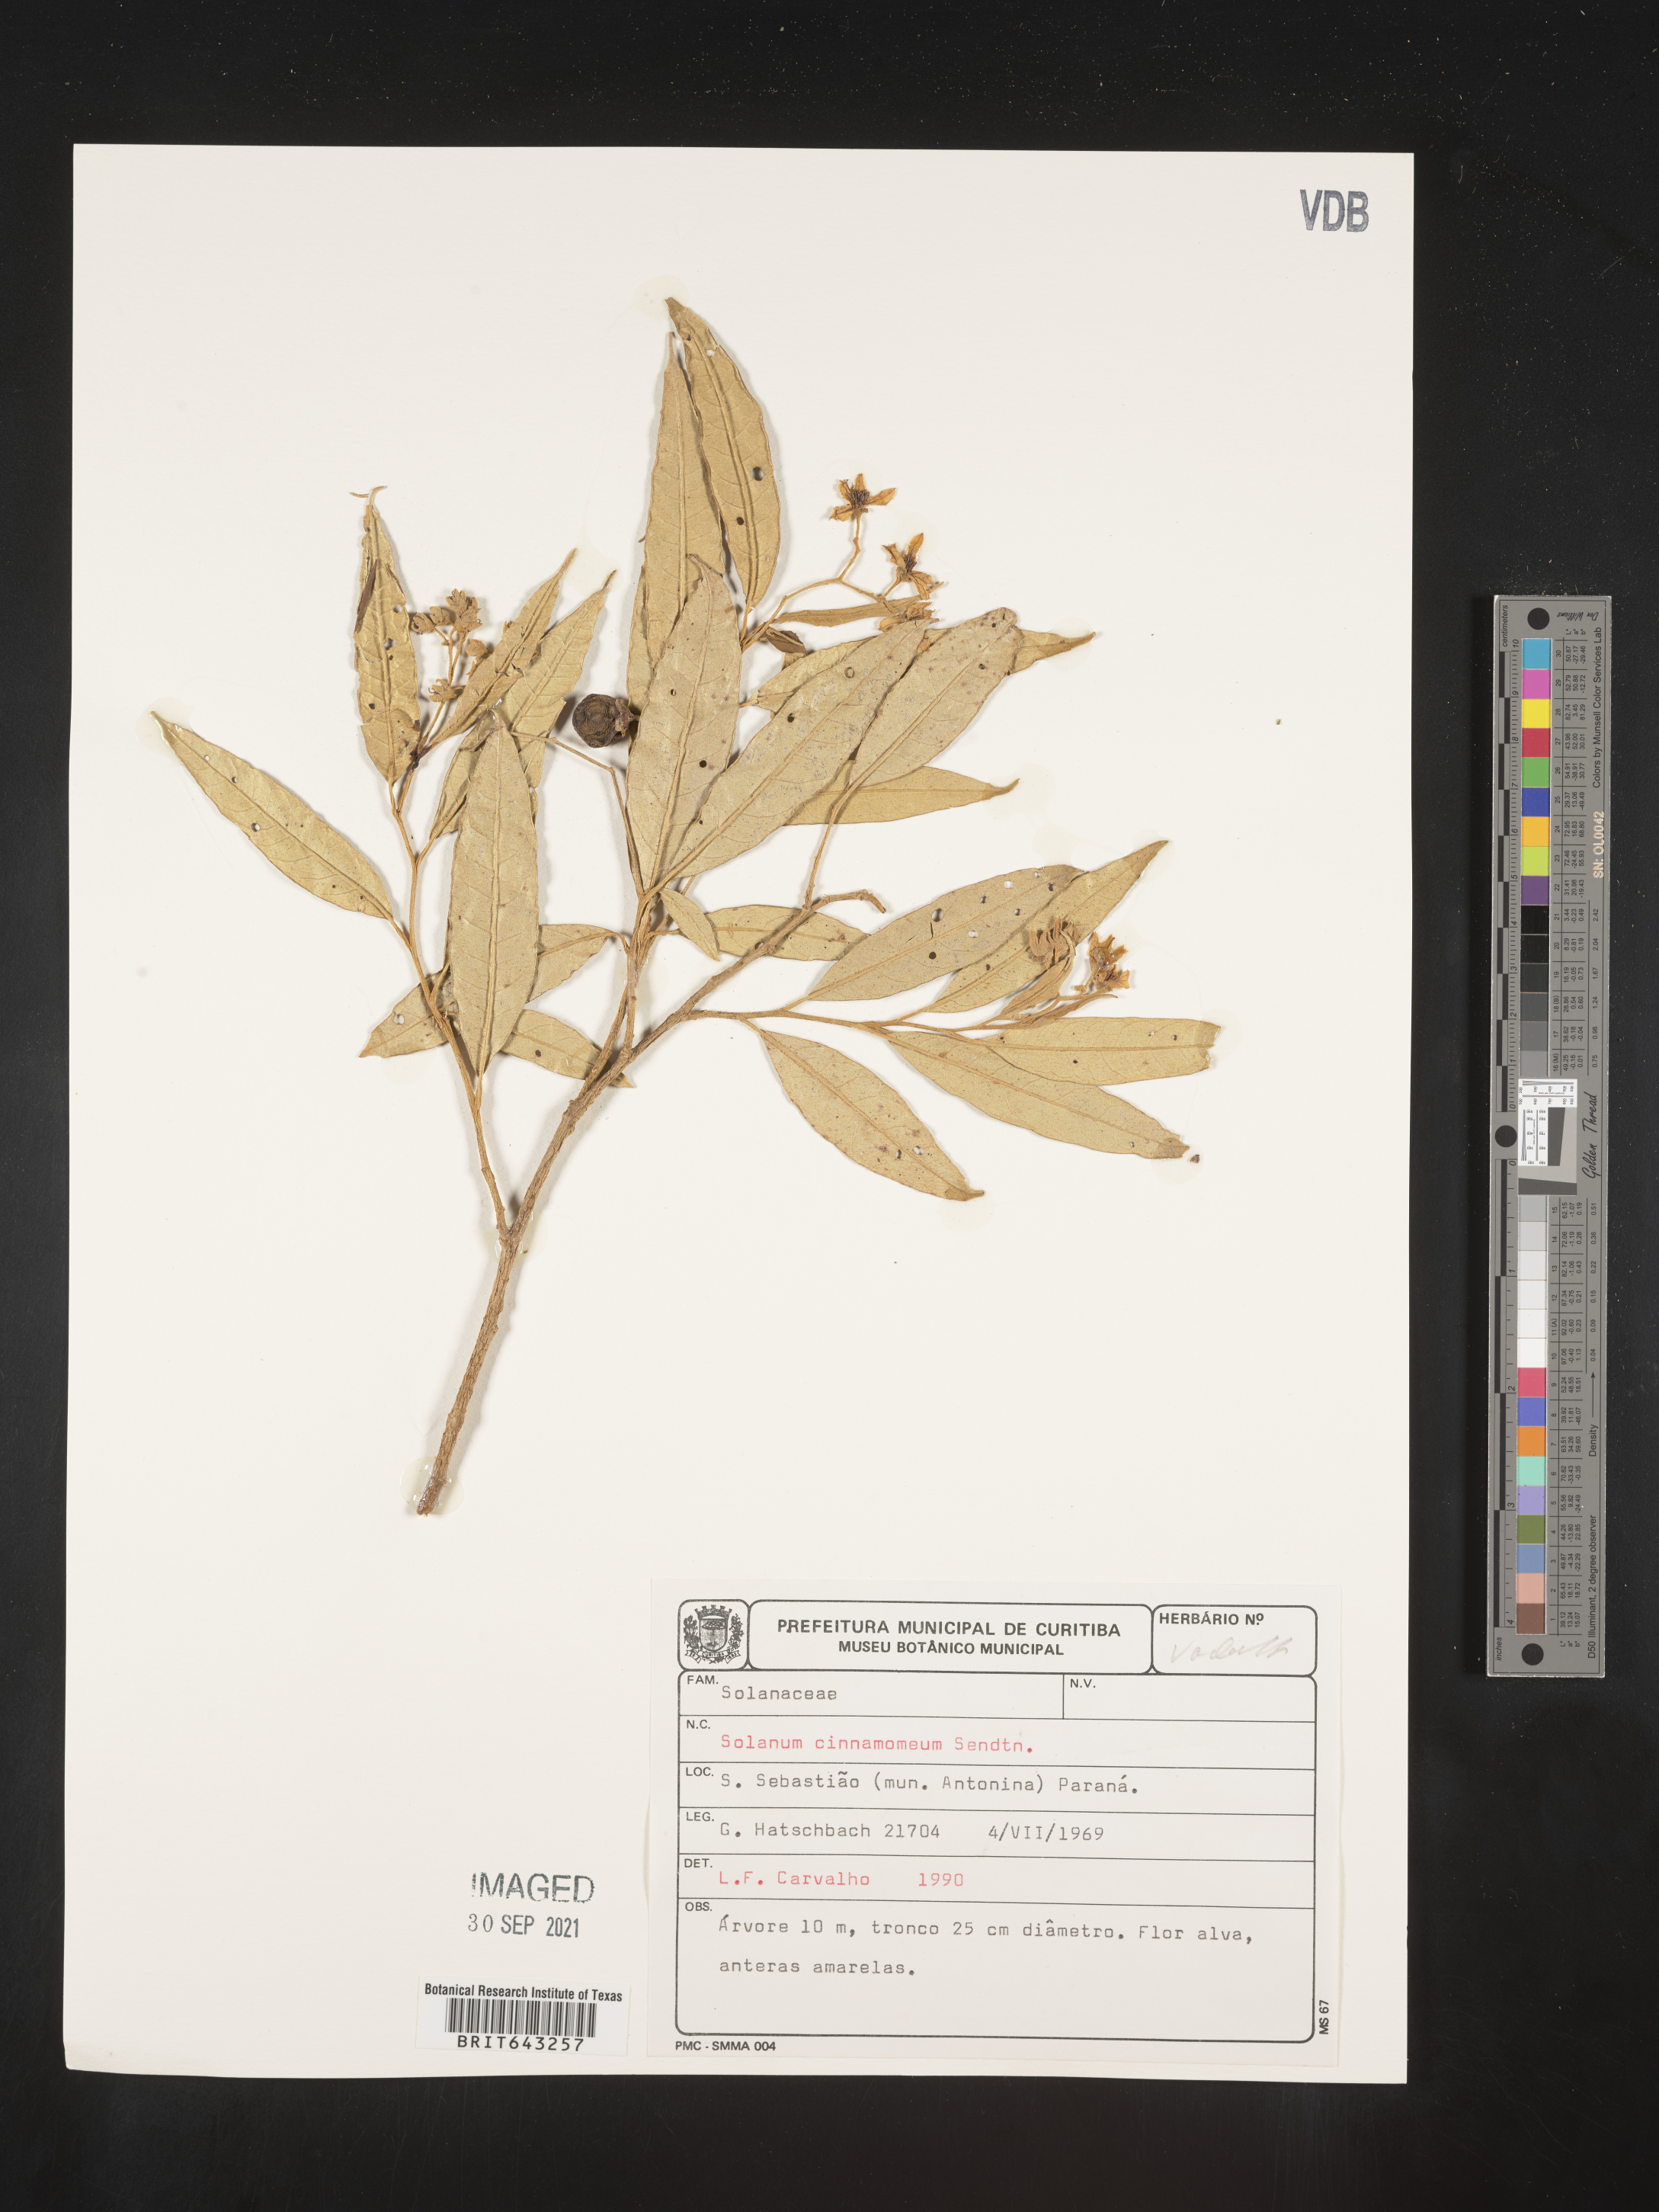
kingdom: Plantae
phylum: Tracheophyta
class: Magnoliopsida
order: Solanales
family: Solanaceae
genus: Solanum
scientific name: Solanum
